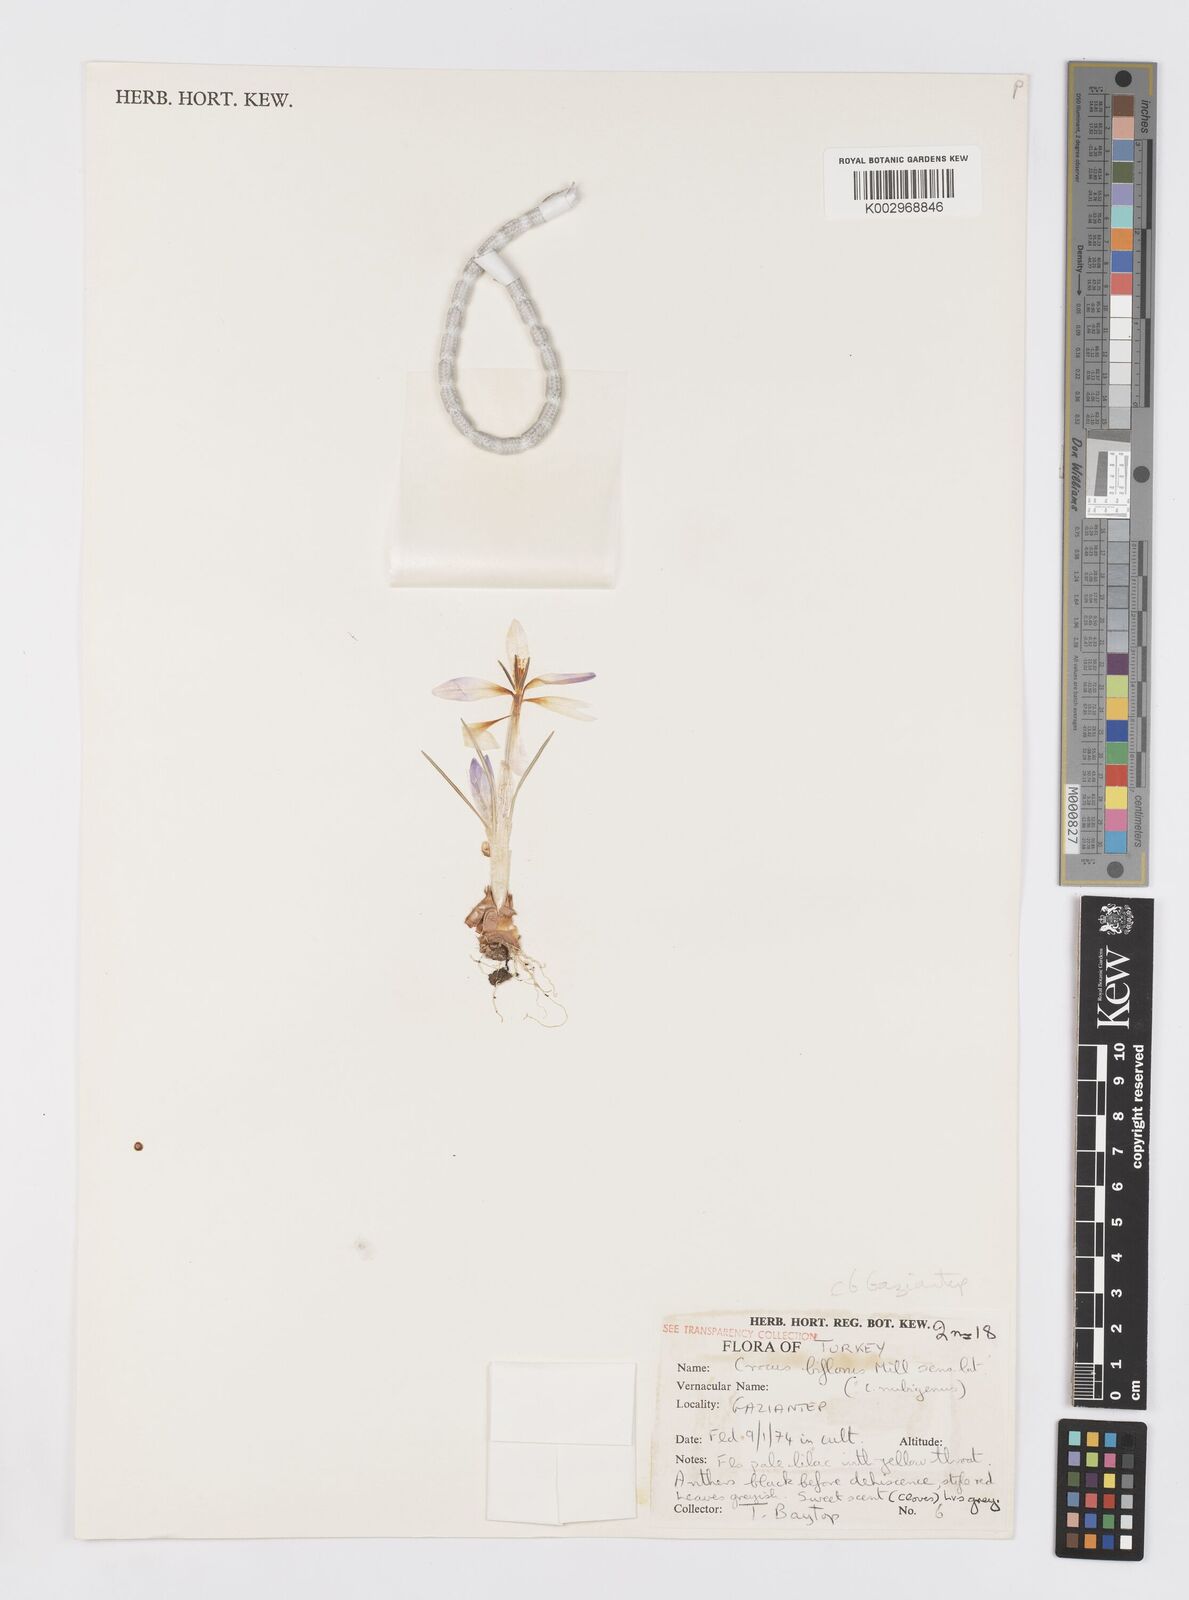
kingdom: Plantae
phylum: Tracheophyta
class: Liliopsida
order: Asparagales
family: Iridaceae
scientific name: Iridaceae
